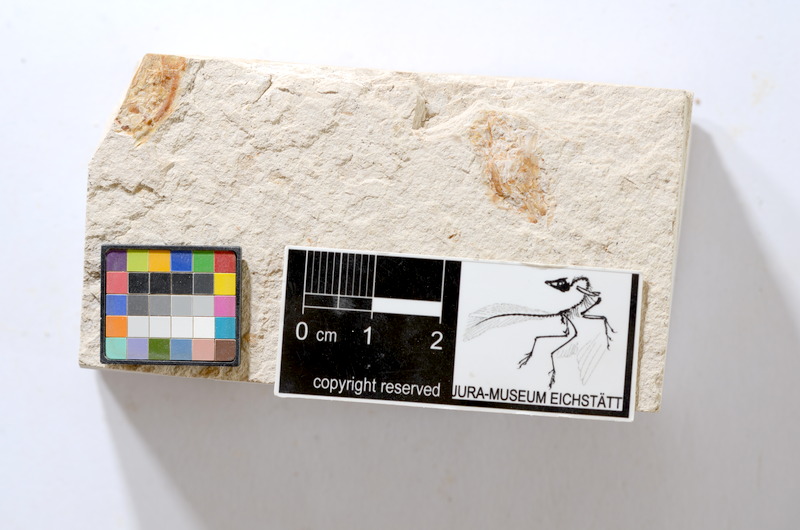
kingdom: Animalia
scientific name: Animalia
